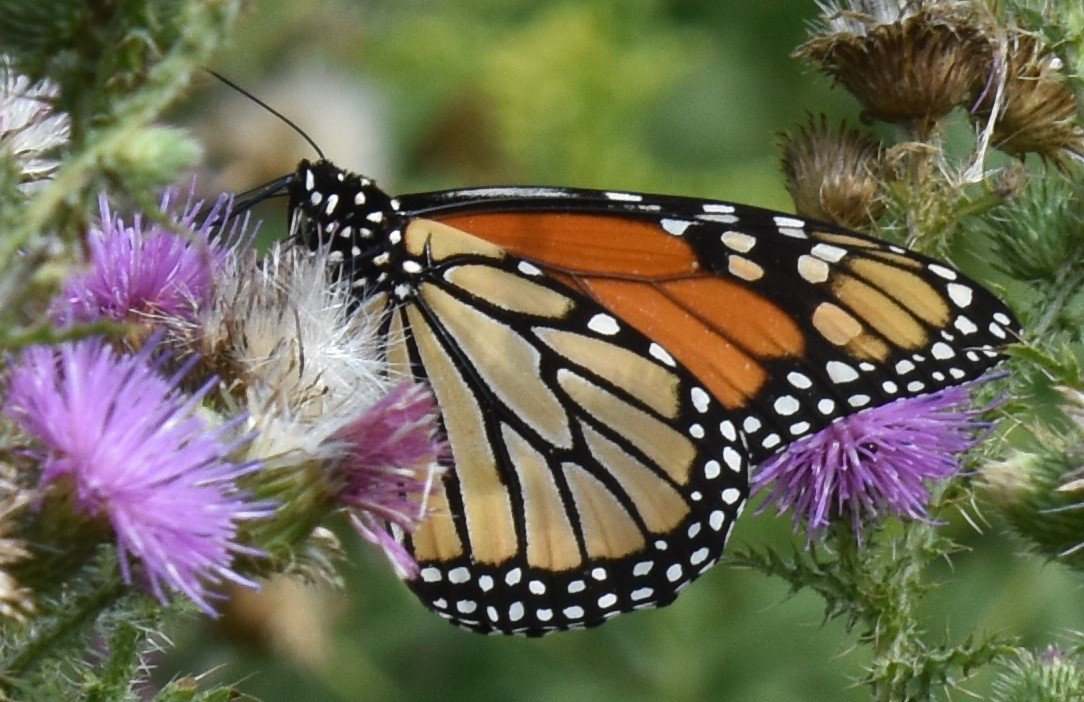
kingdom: Animalia
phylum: Arthropoda
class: Insecta
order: Lepidoptera
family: Nymphalidae
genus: Danaus
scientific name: Danaus plexippus
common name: Monarch
